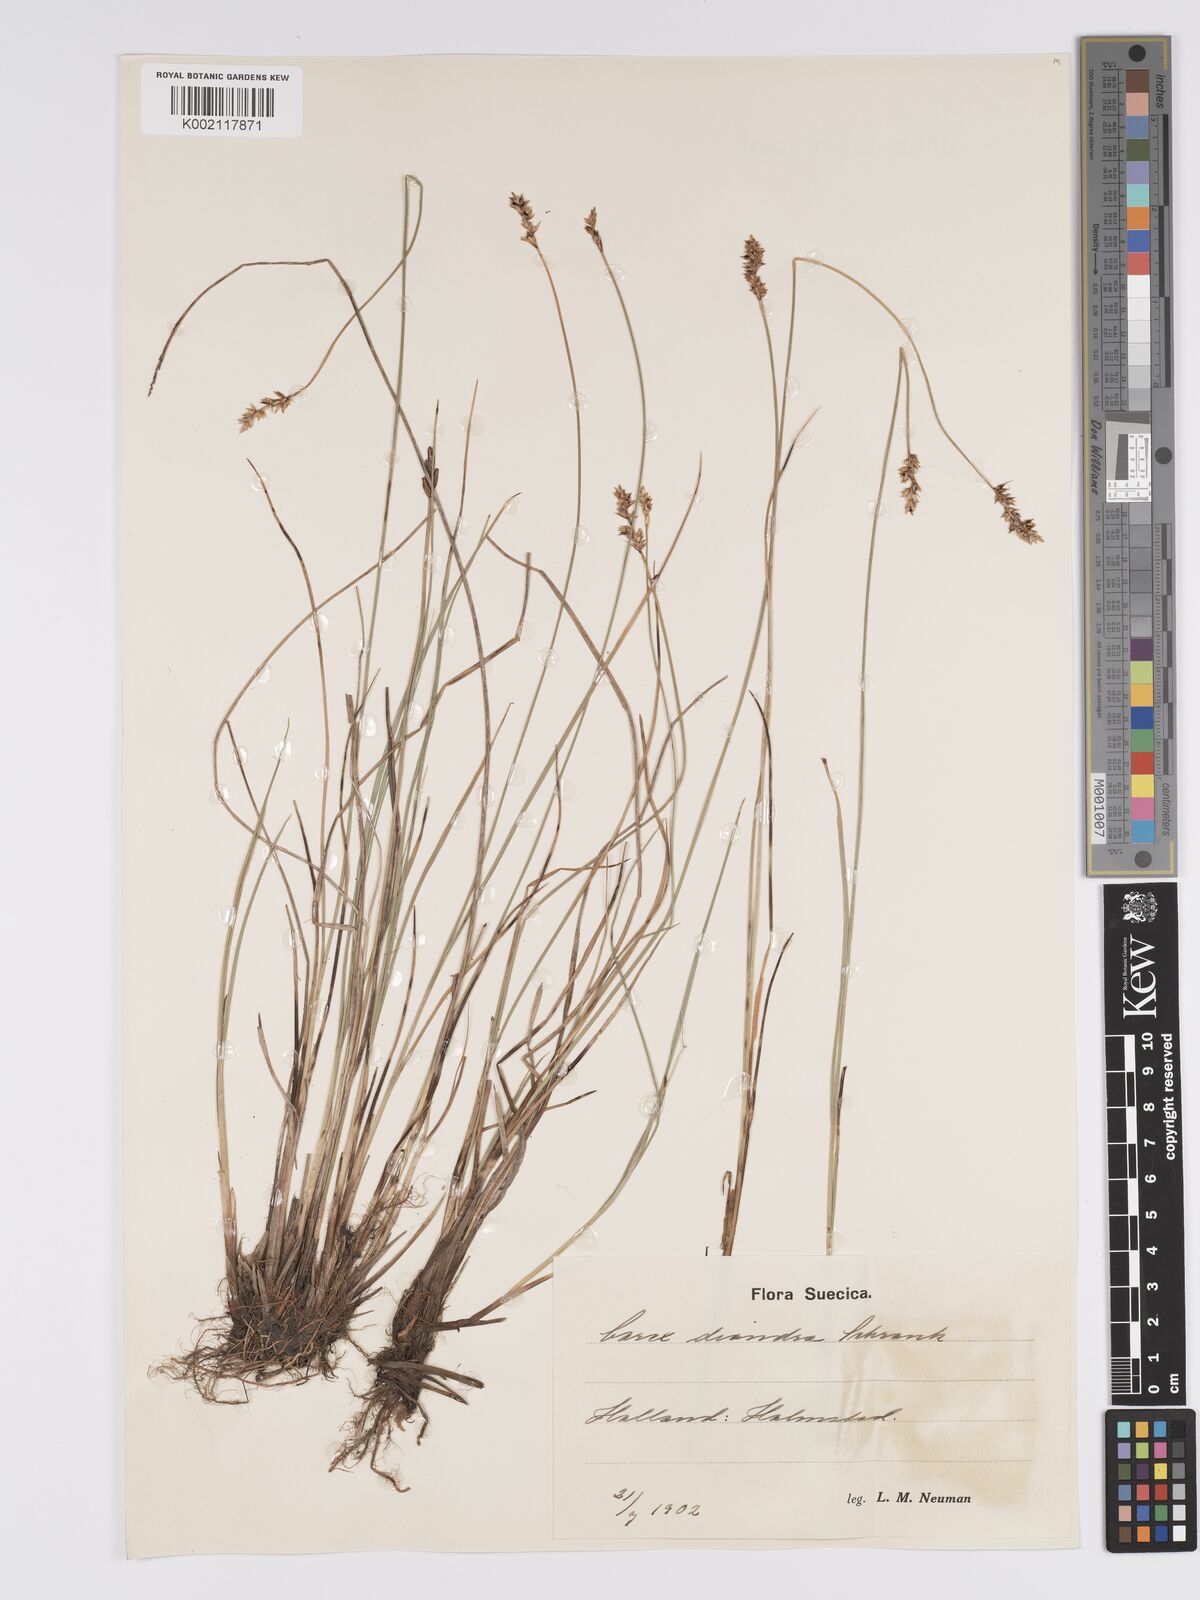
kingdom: Plantae
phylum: Tracheophyta
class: Liliopsida
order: Poales
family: Cyperaceae
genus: Carex
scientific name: Carex diandra
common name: Lesser tussock-sedge
